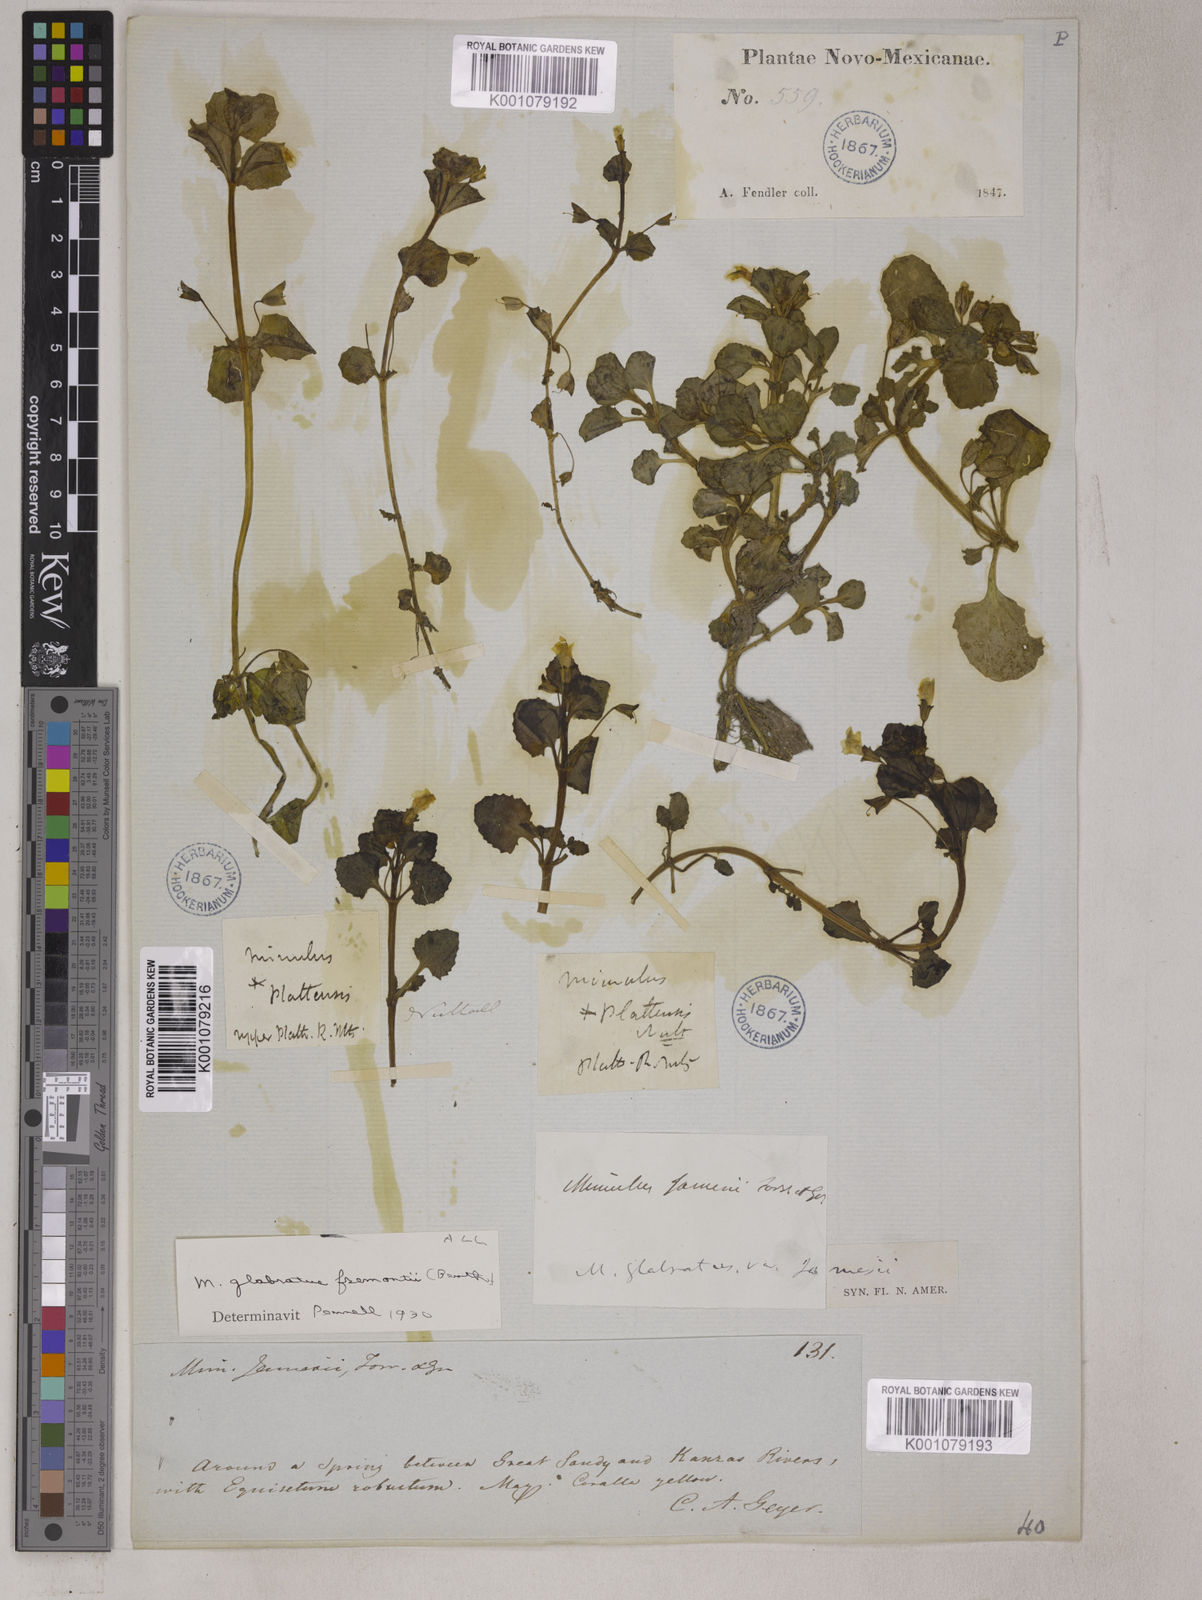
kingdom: Plantae
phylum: Tracheophyta
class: Magnoliopsida
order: Lamiales
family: Phrymaceae
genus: Erythranthe
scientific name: Erythranthe glabrata
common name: Round-leaved monkeyflower
